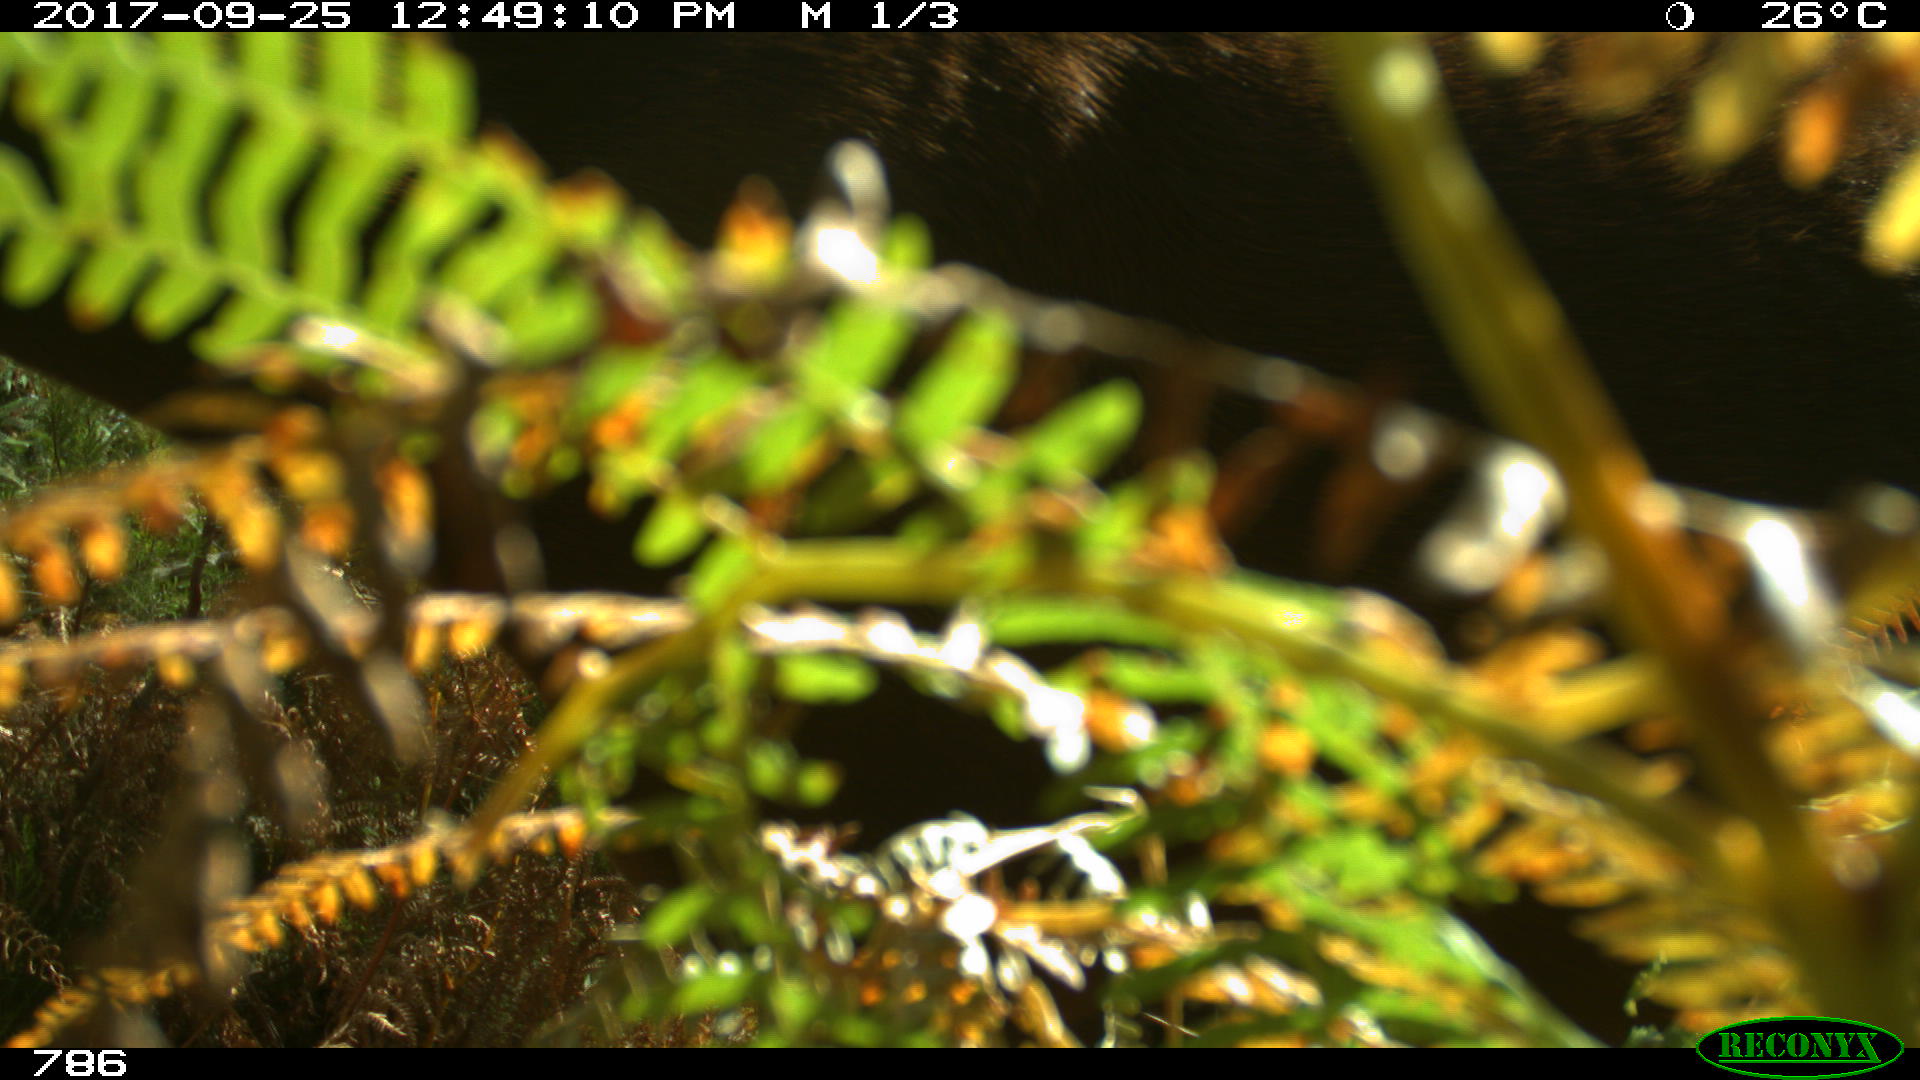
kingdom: Animalia
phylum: Chordata
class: Mammalia
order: Perissodactyla
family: Equidae
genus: Equus
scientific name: Equus caballus
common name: Horse
